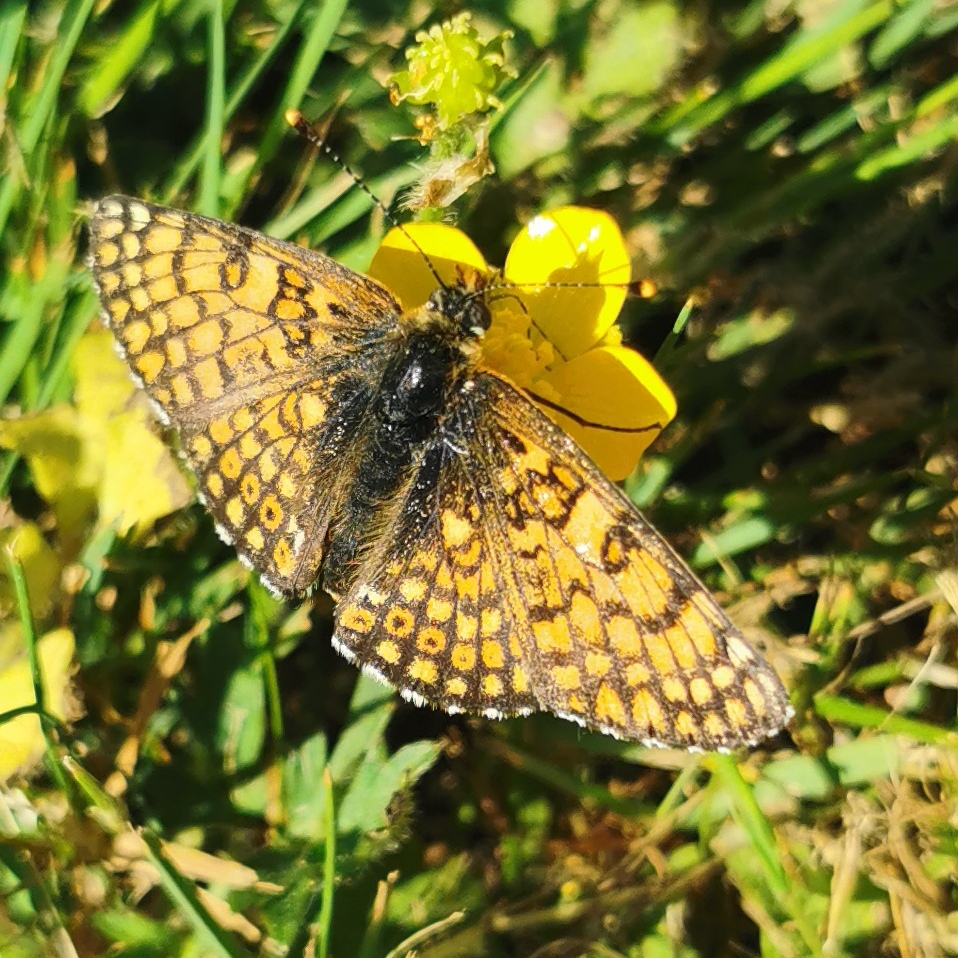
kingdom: Animalia
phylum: Arthropoda
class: Insecta
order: Lepidoptera
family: Nymphalidae
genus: Melitaea
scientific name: Melitaea cinxia
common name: Okkergul pletvinge
